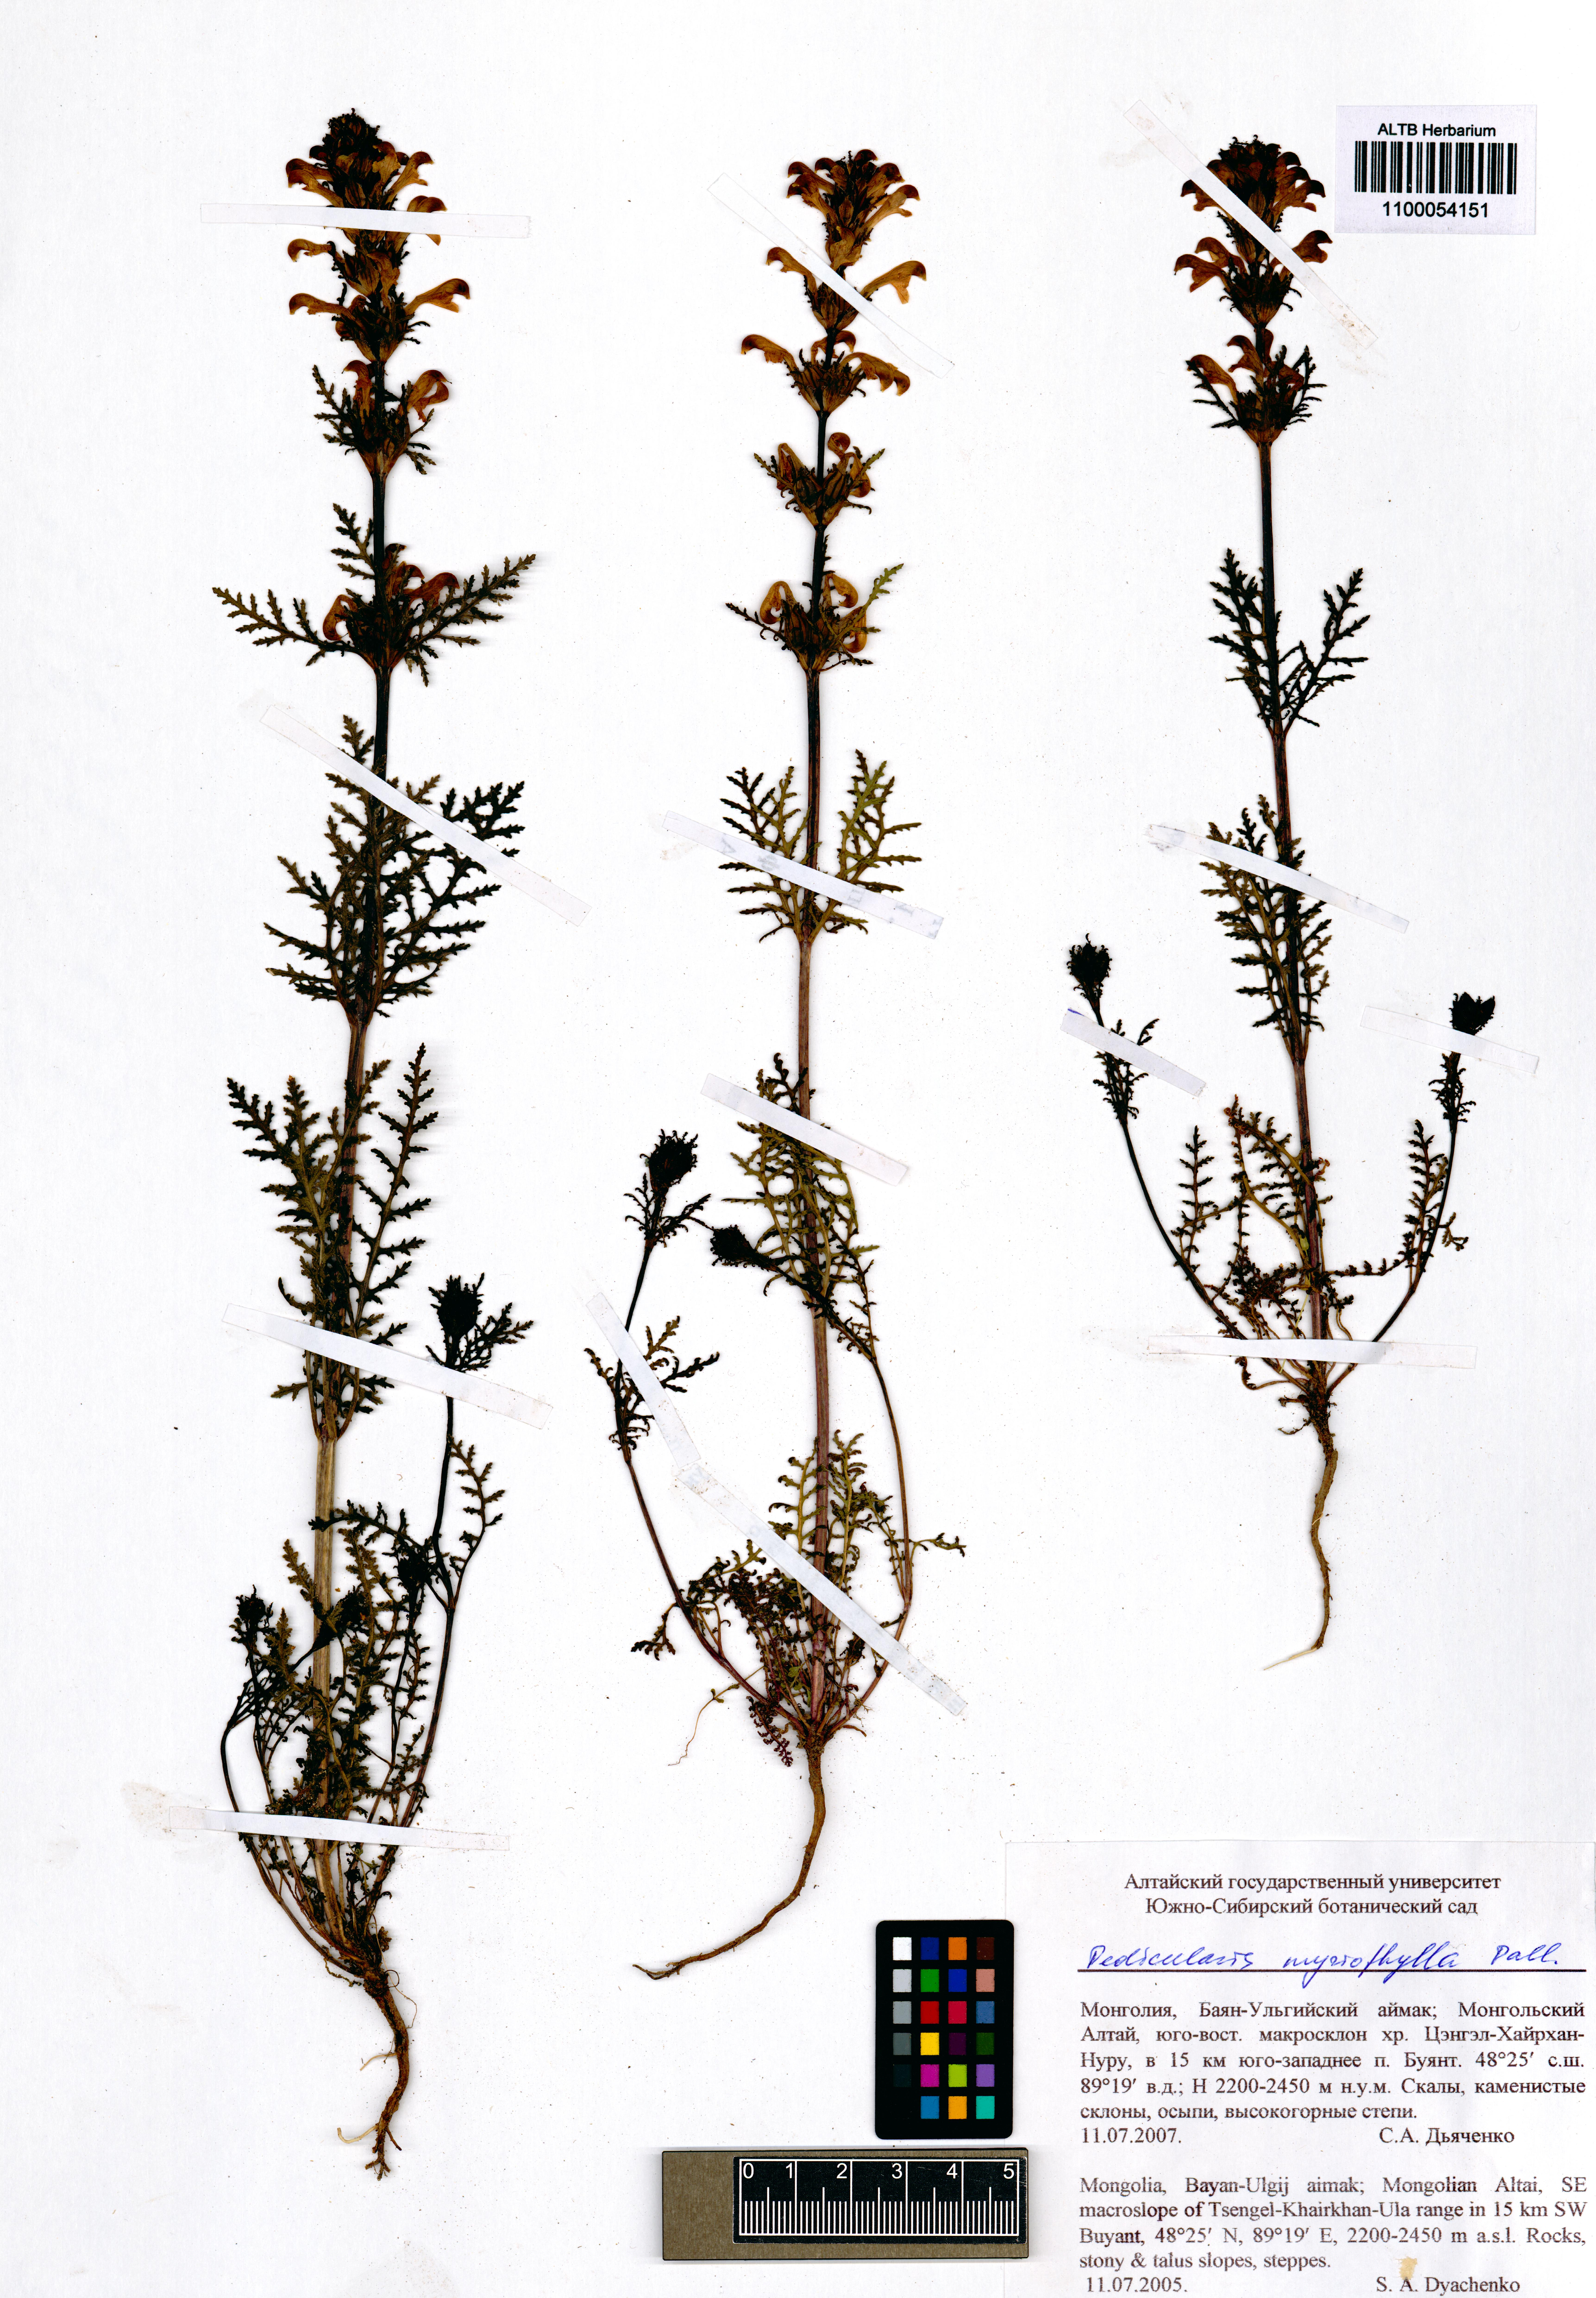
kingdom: Plantae
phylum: Tracheophyta
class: Magnoliopsida
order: Lamiales
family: Orobanchaceae
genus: Pedicularis
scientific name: Pedicularis myriophylla
